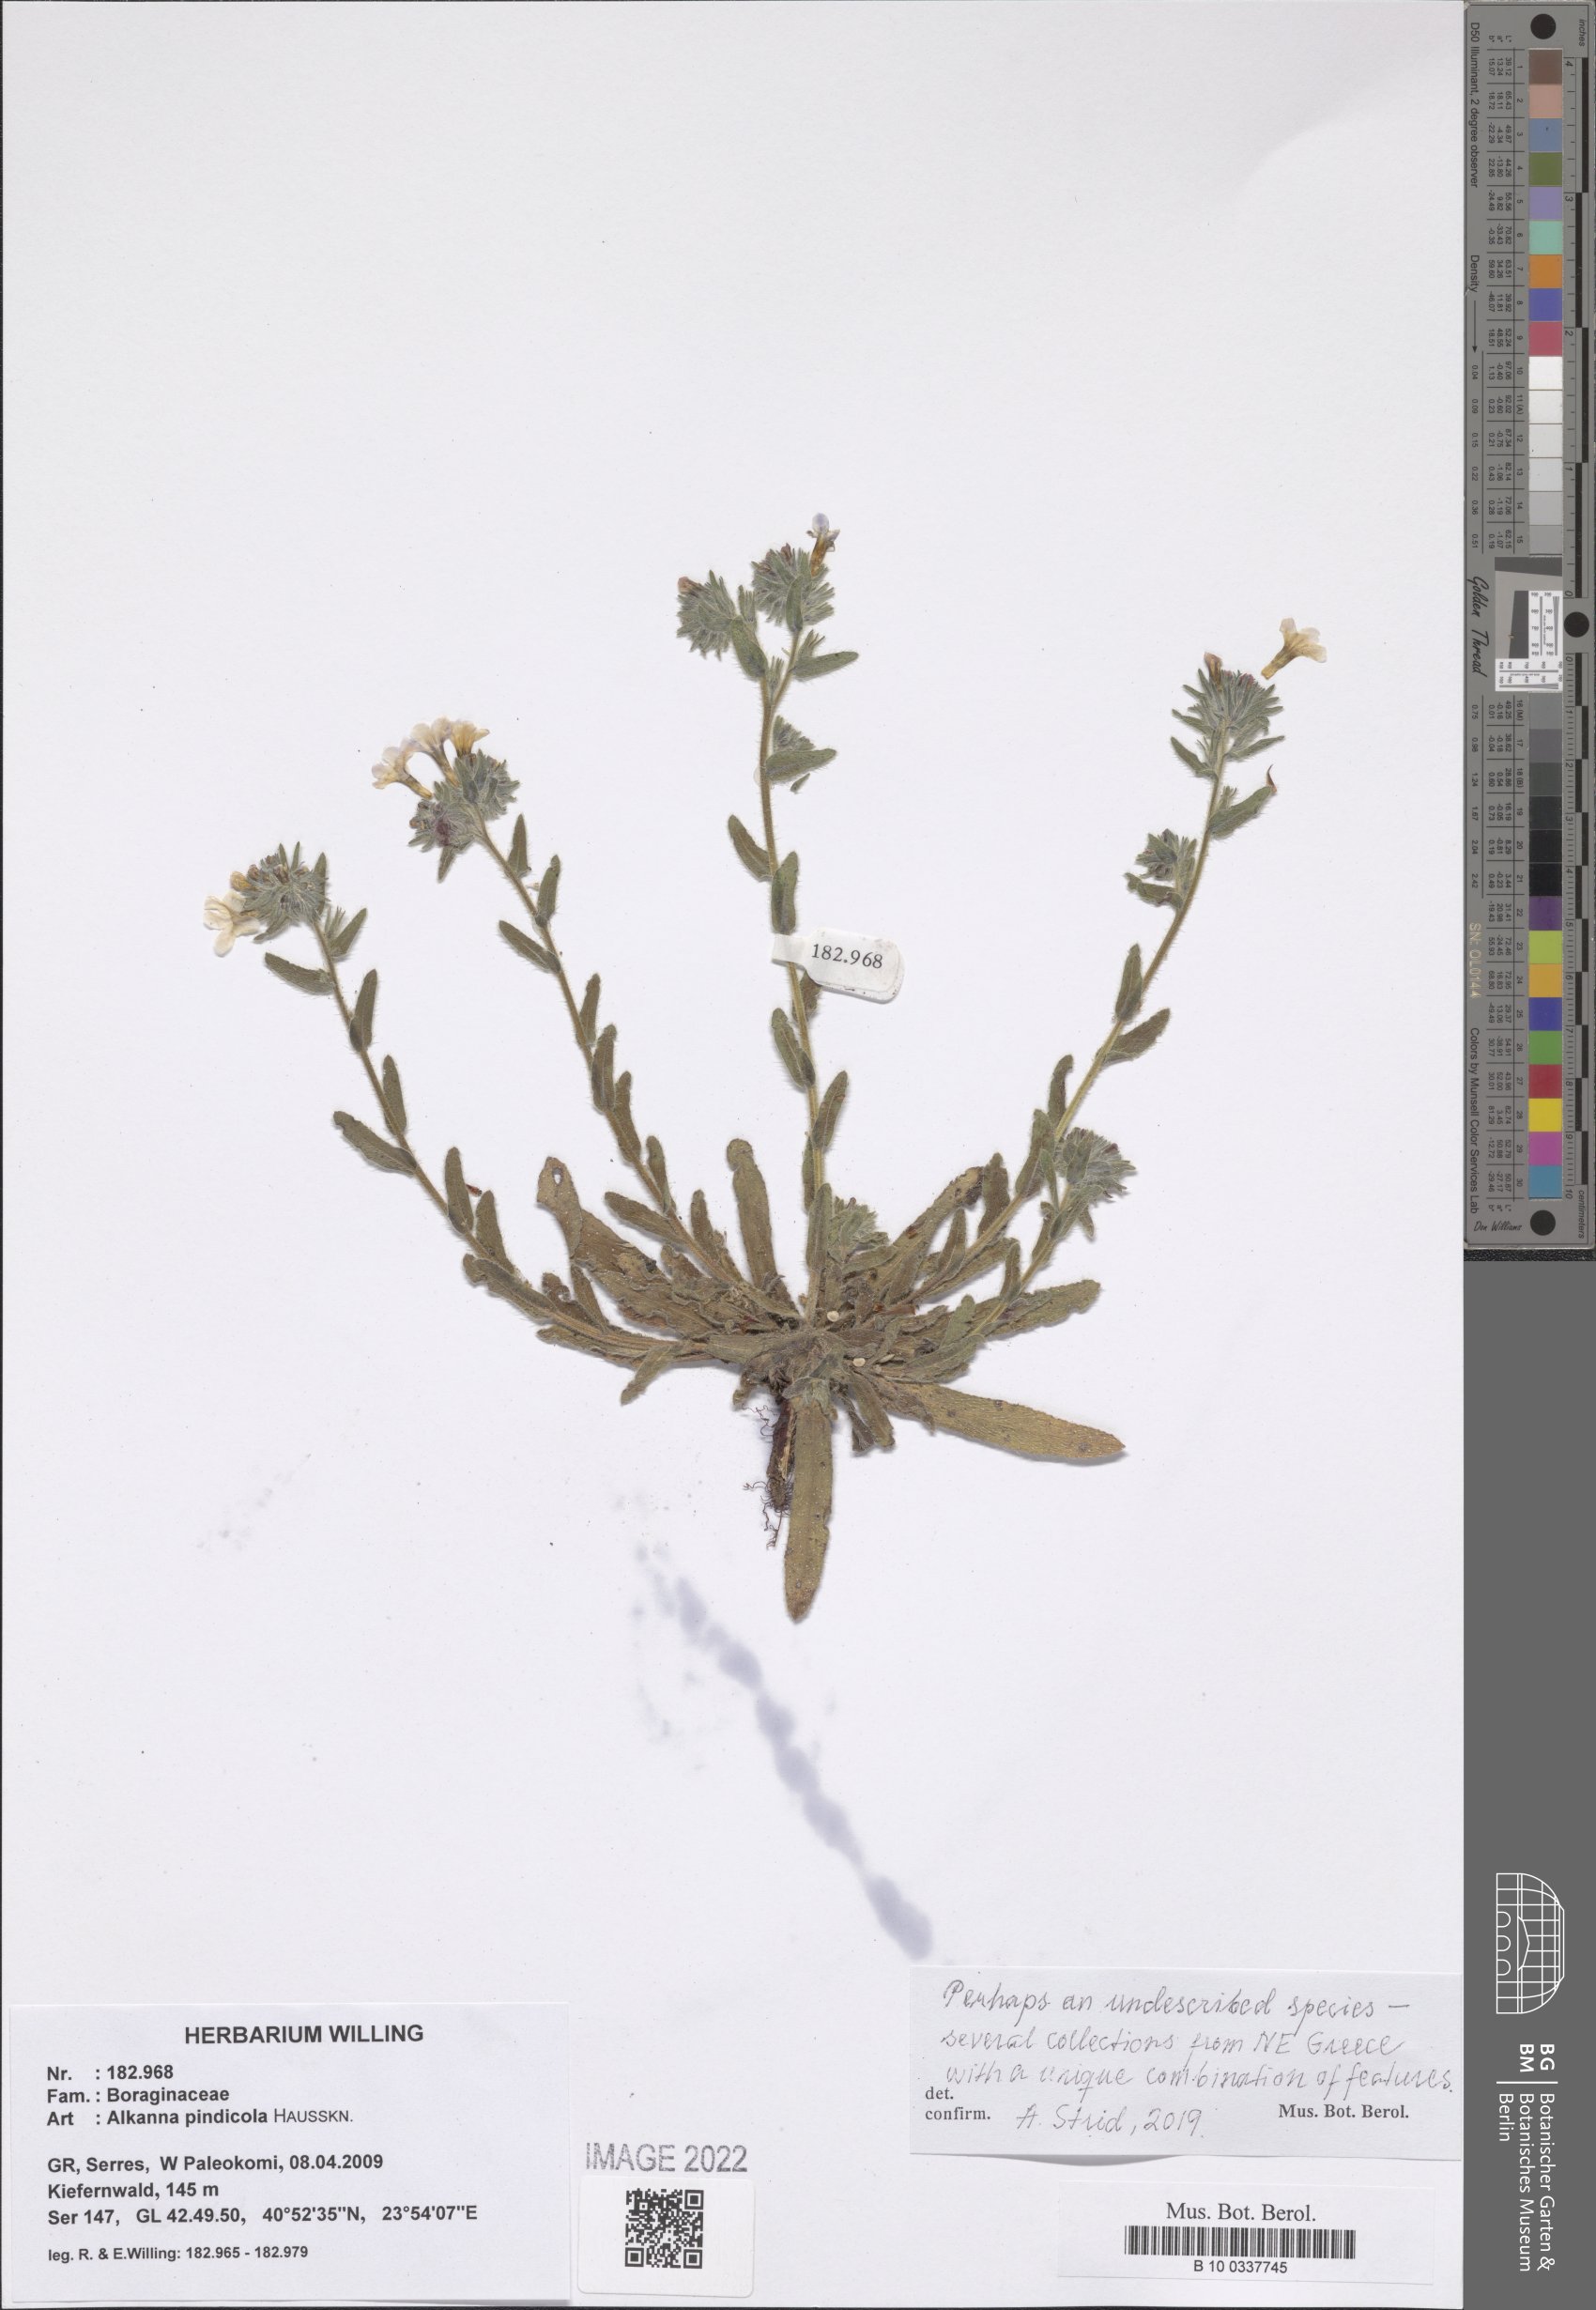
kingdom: Plantae
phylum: Tracheophyta
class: Magnoliopsida
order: Boraginales
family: Boraginaceae
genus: Alkanna
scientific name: Alkanna pindicola
